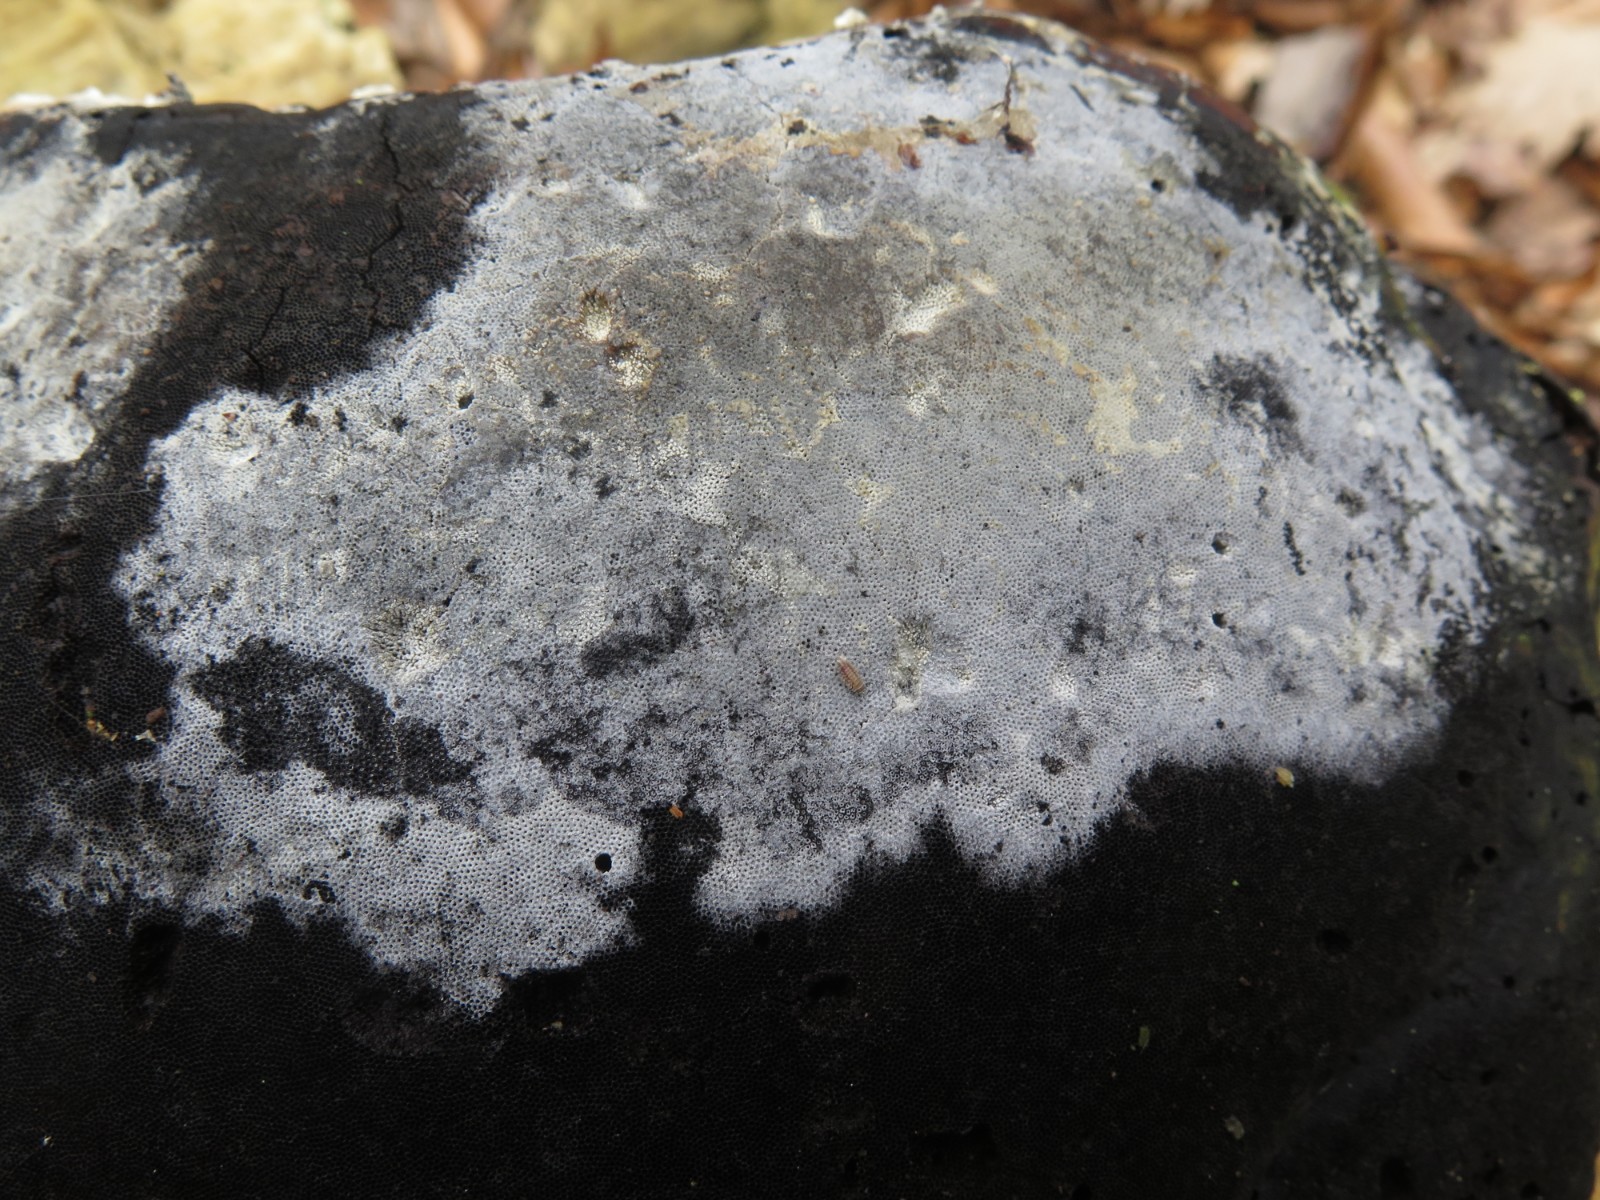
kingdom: Fungi
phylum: Basidiomycota
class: Agaricomycetes
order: Cantharellales
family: Hydnaceae
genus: Sistotrema
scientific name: Sistotrema brinkmannii
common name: bønnesporet kroneskorpe
